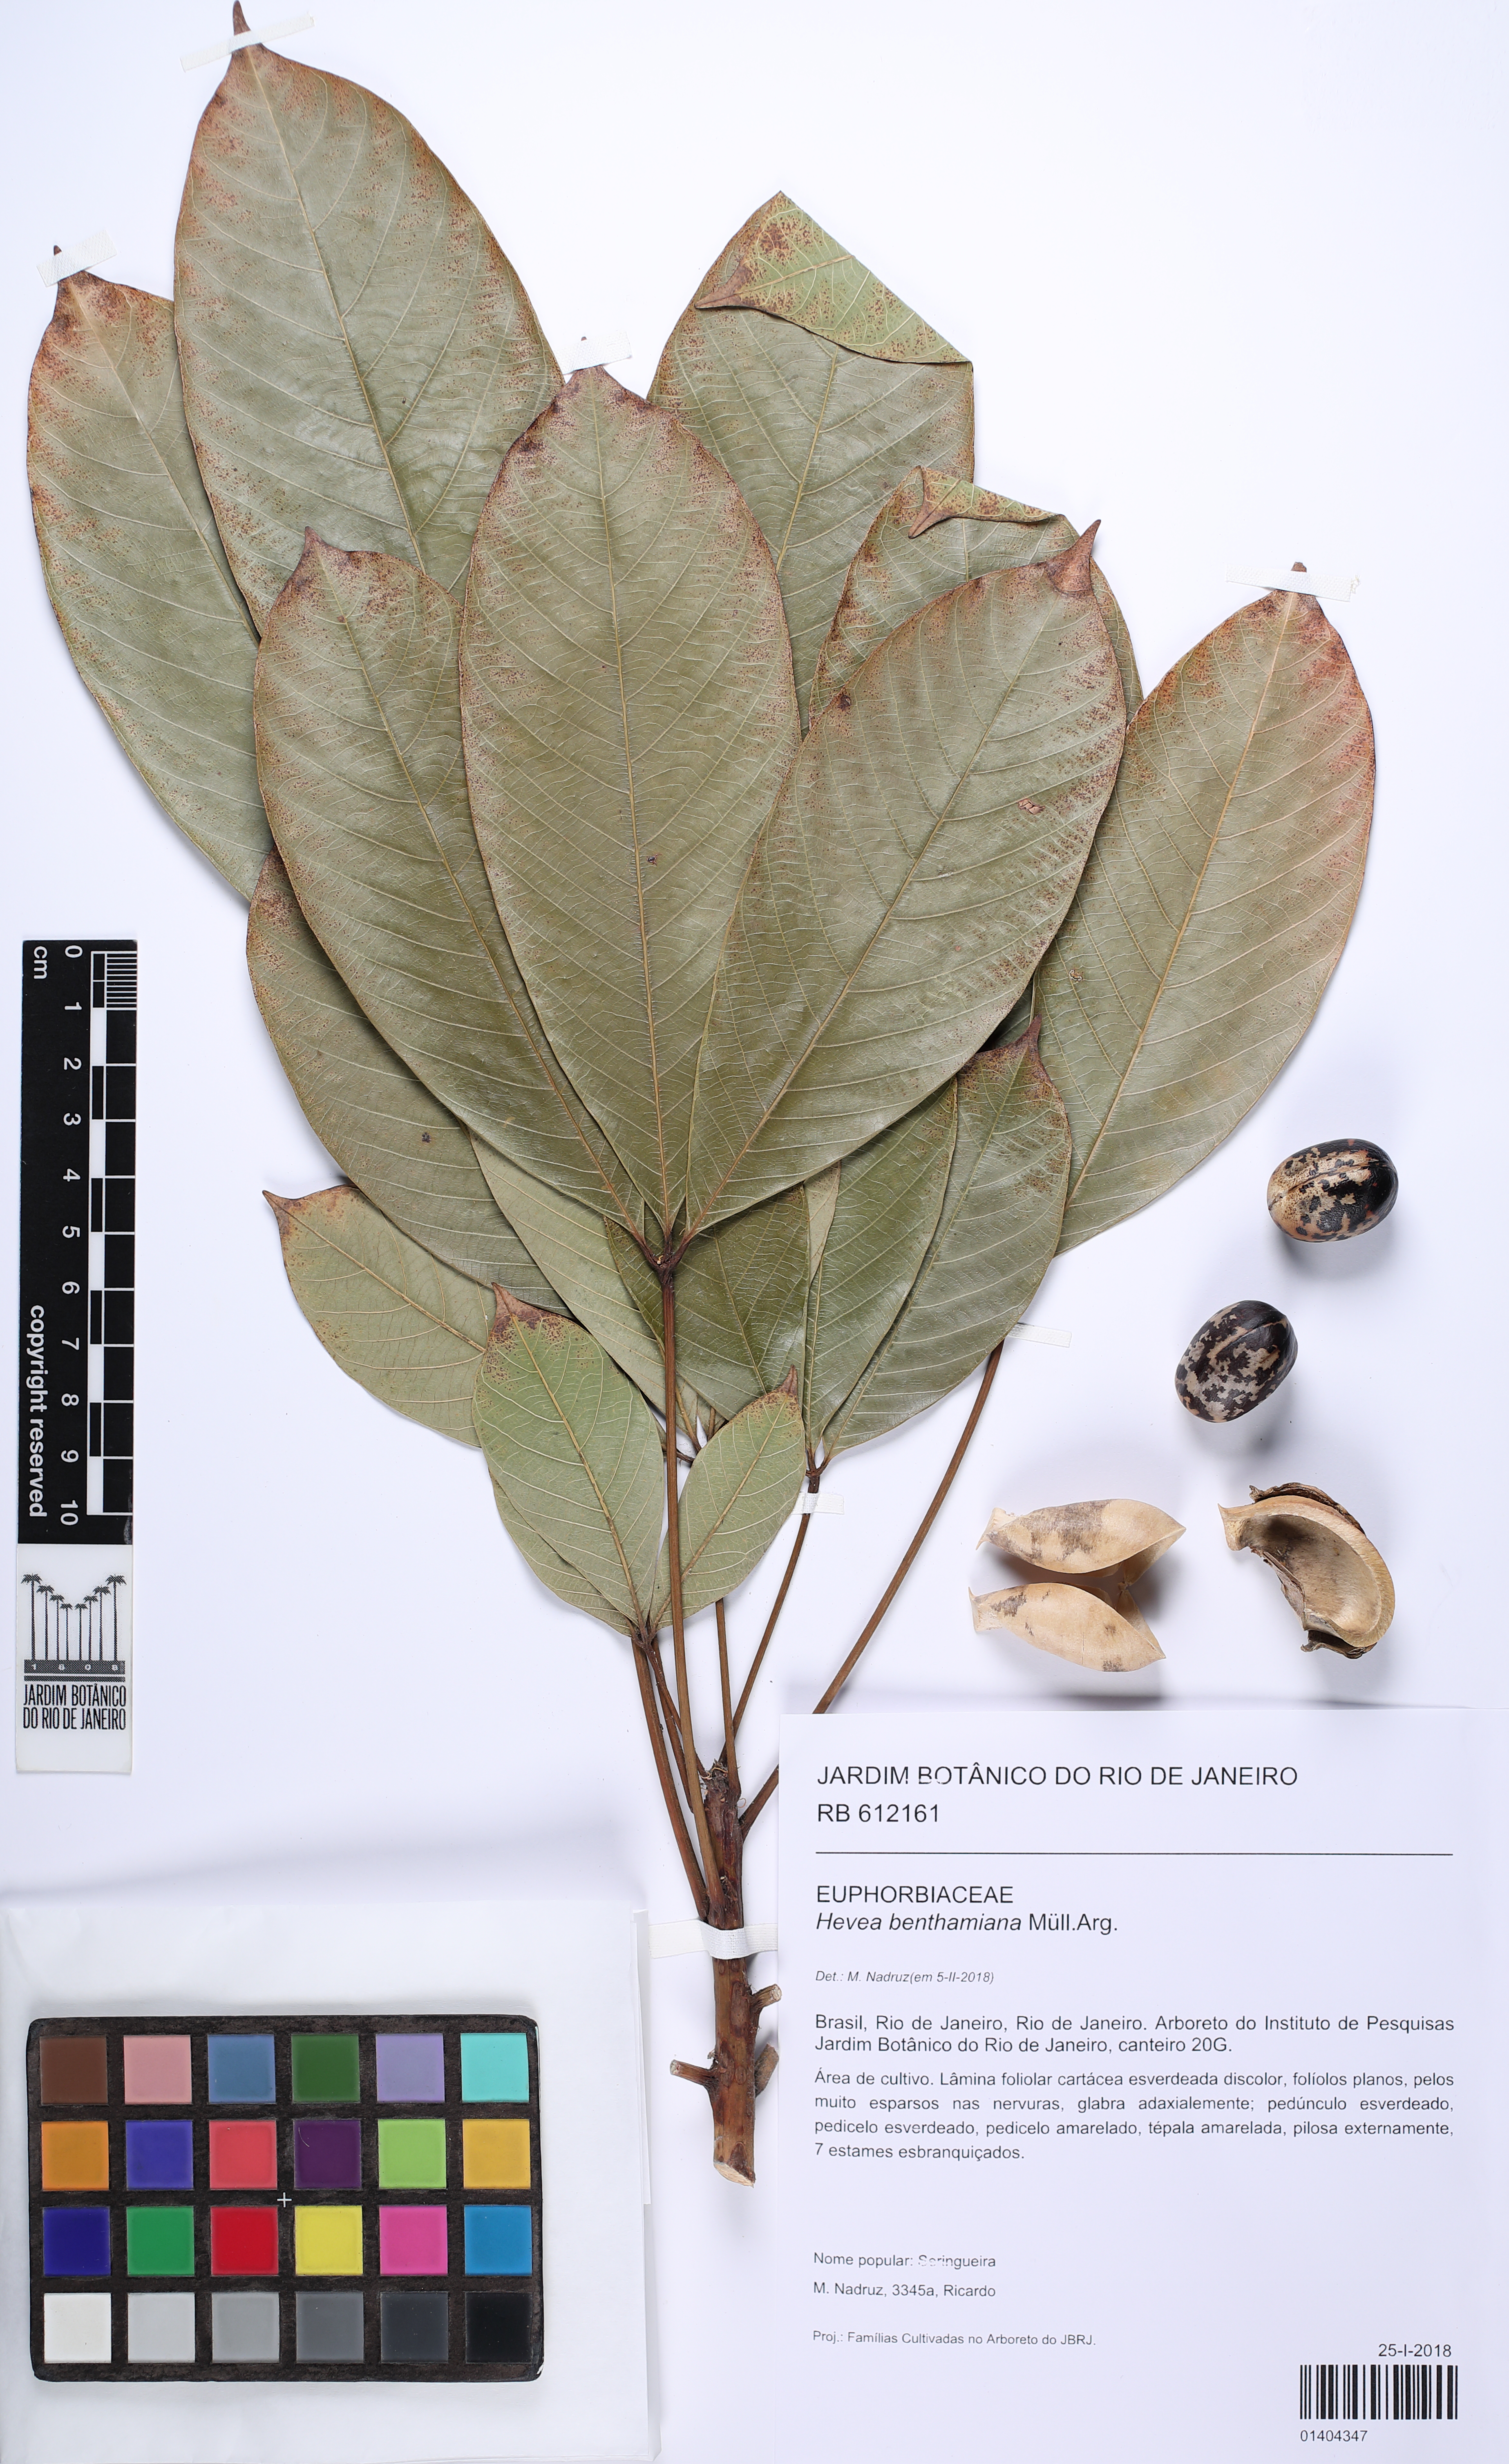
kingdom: Plantae
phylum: Tracheophyta
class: Magnoliopsida
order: Malpighiales
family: Euphorbiaceae
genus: Hevea
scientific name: Hevea benthamiana
